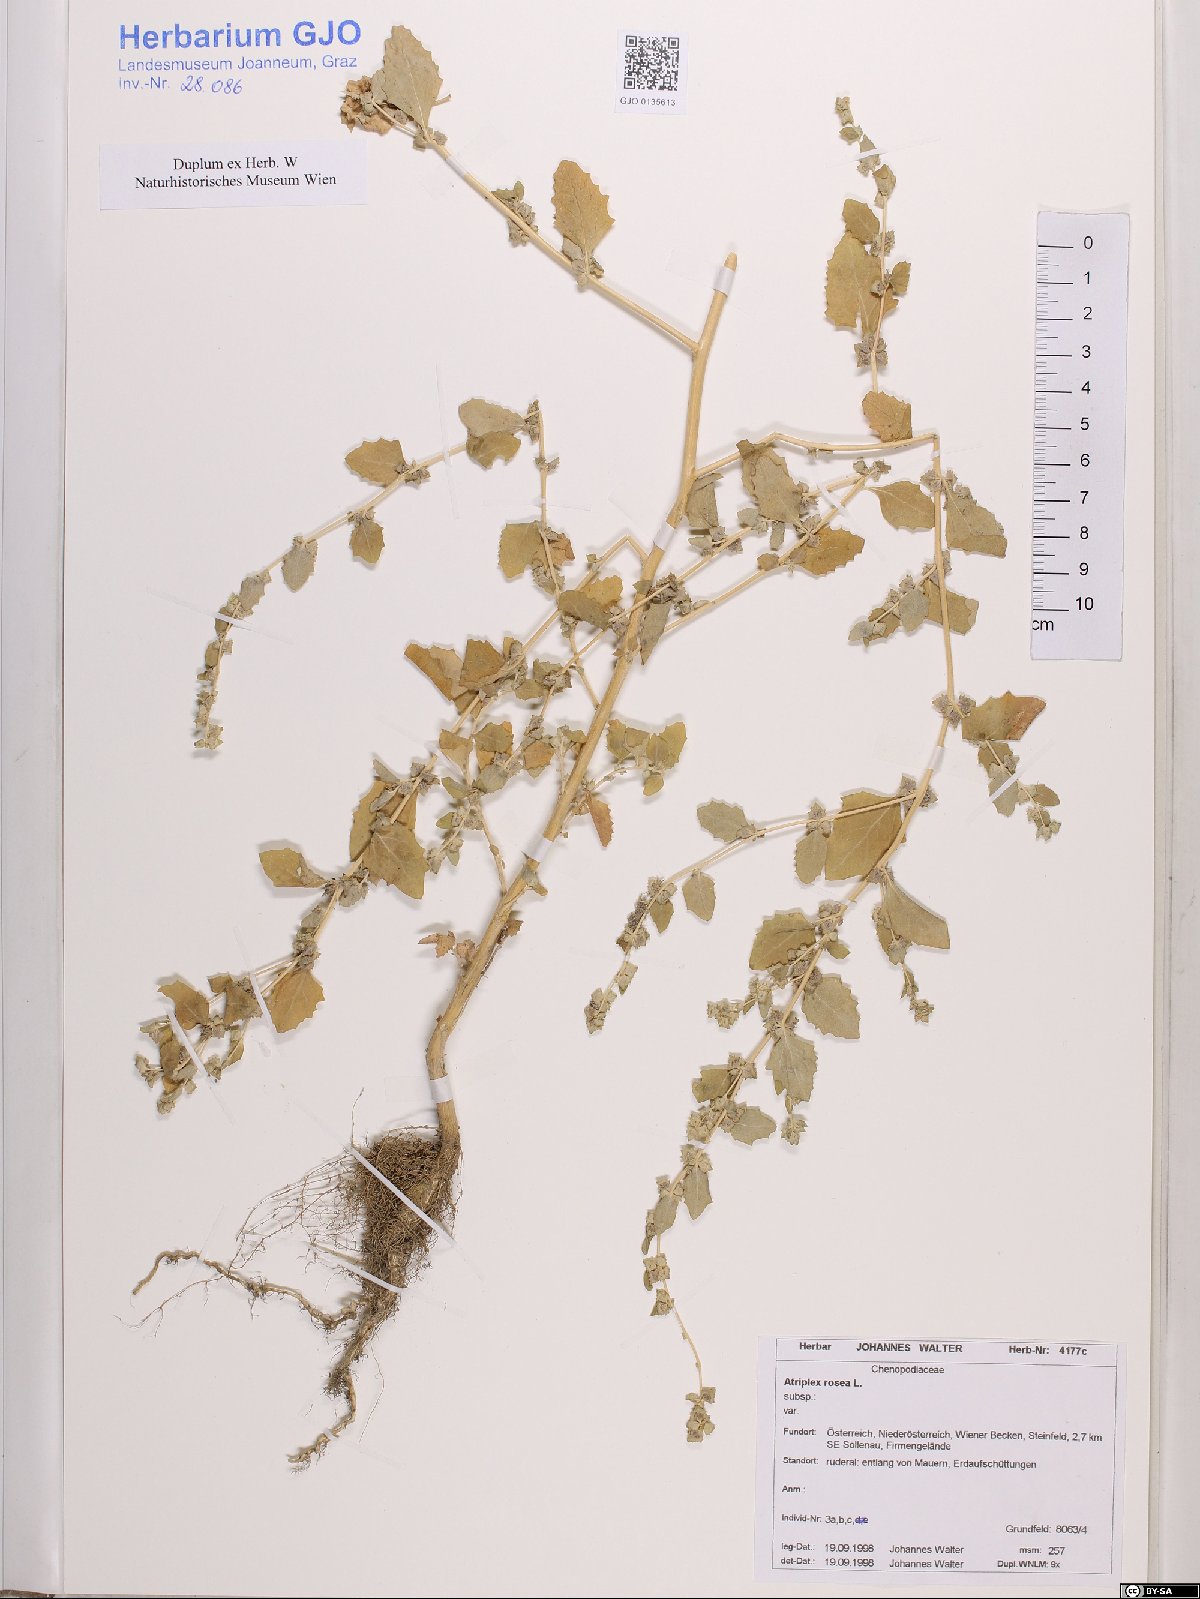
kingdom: Plantae
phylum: Tracheophyta
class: Magnoliopsida
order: Caryophyllales
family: Amaranthaceae
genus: Atriplex
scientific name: Atriplex rosea
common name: Tumbling saltweed
